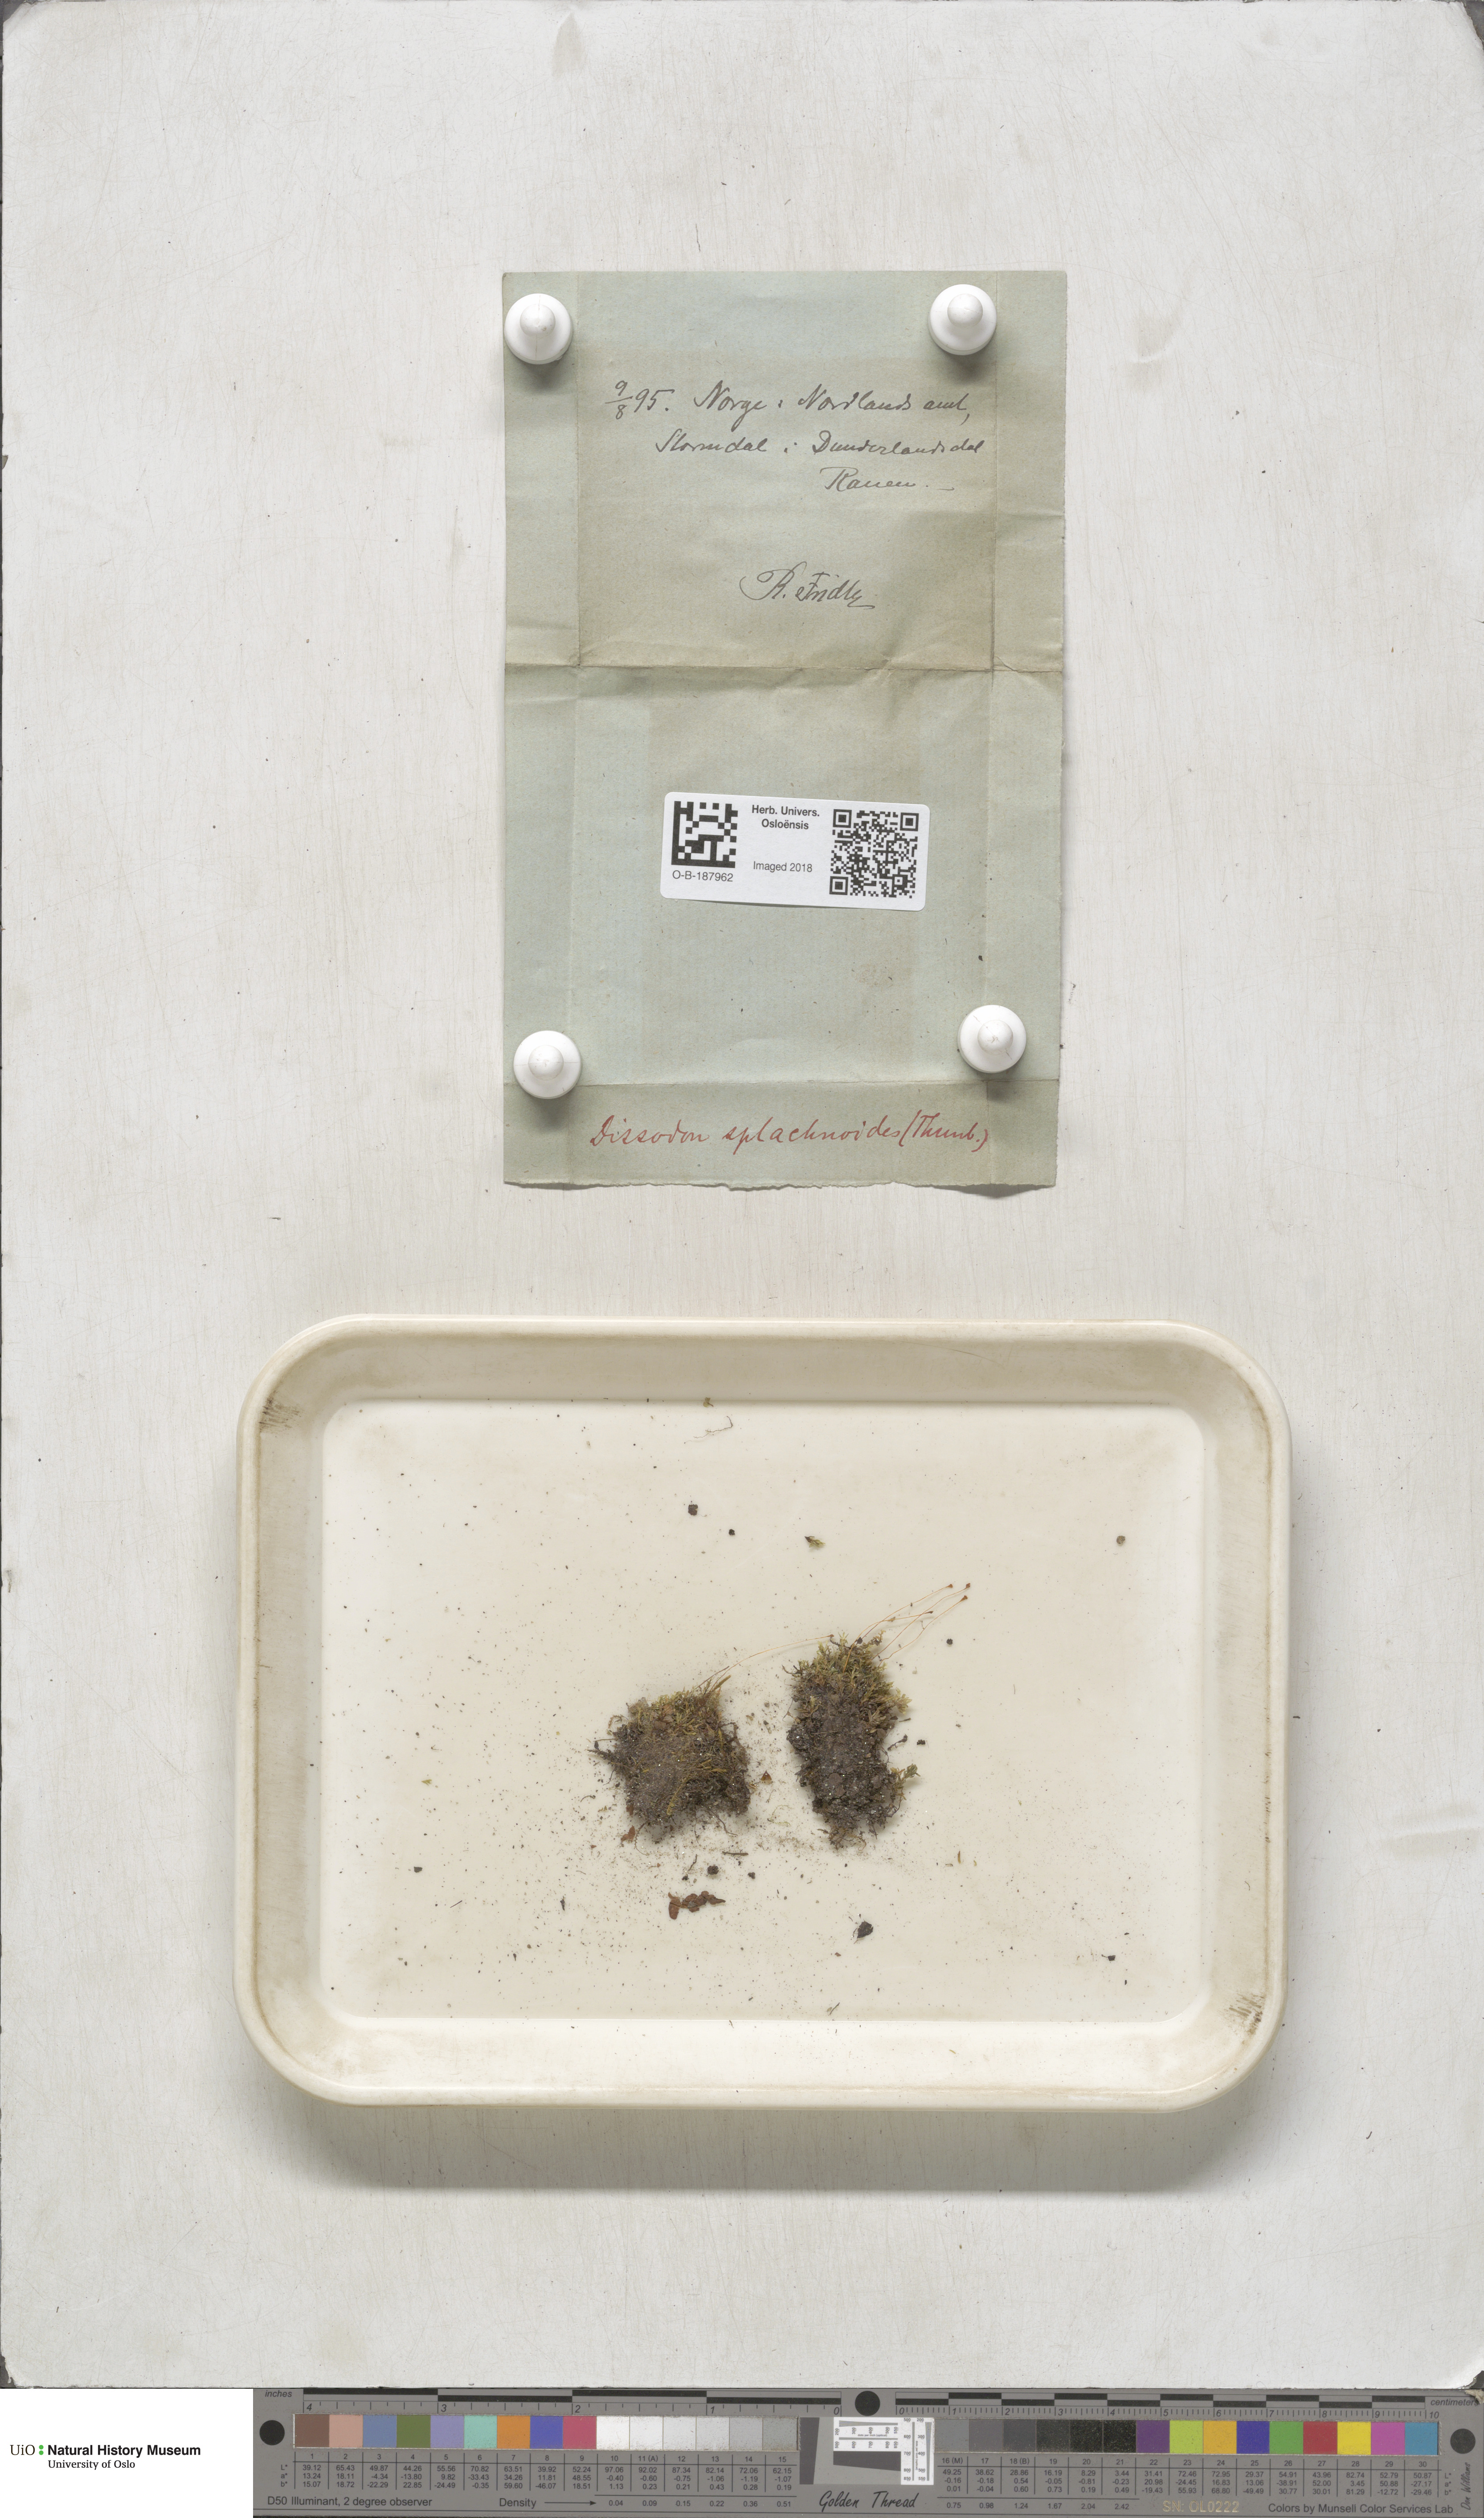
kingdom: Plantae
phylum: Bryophyta
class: Bryopsida
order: Splachnales
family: Splachnaceae
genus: Tayloria
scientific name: Tayloria lingulata
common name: Tongue-leaved trumpet moss
